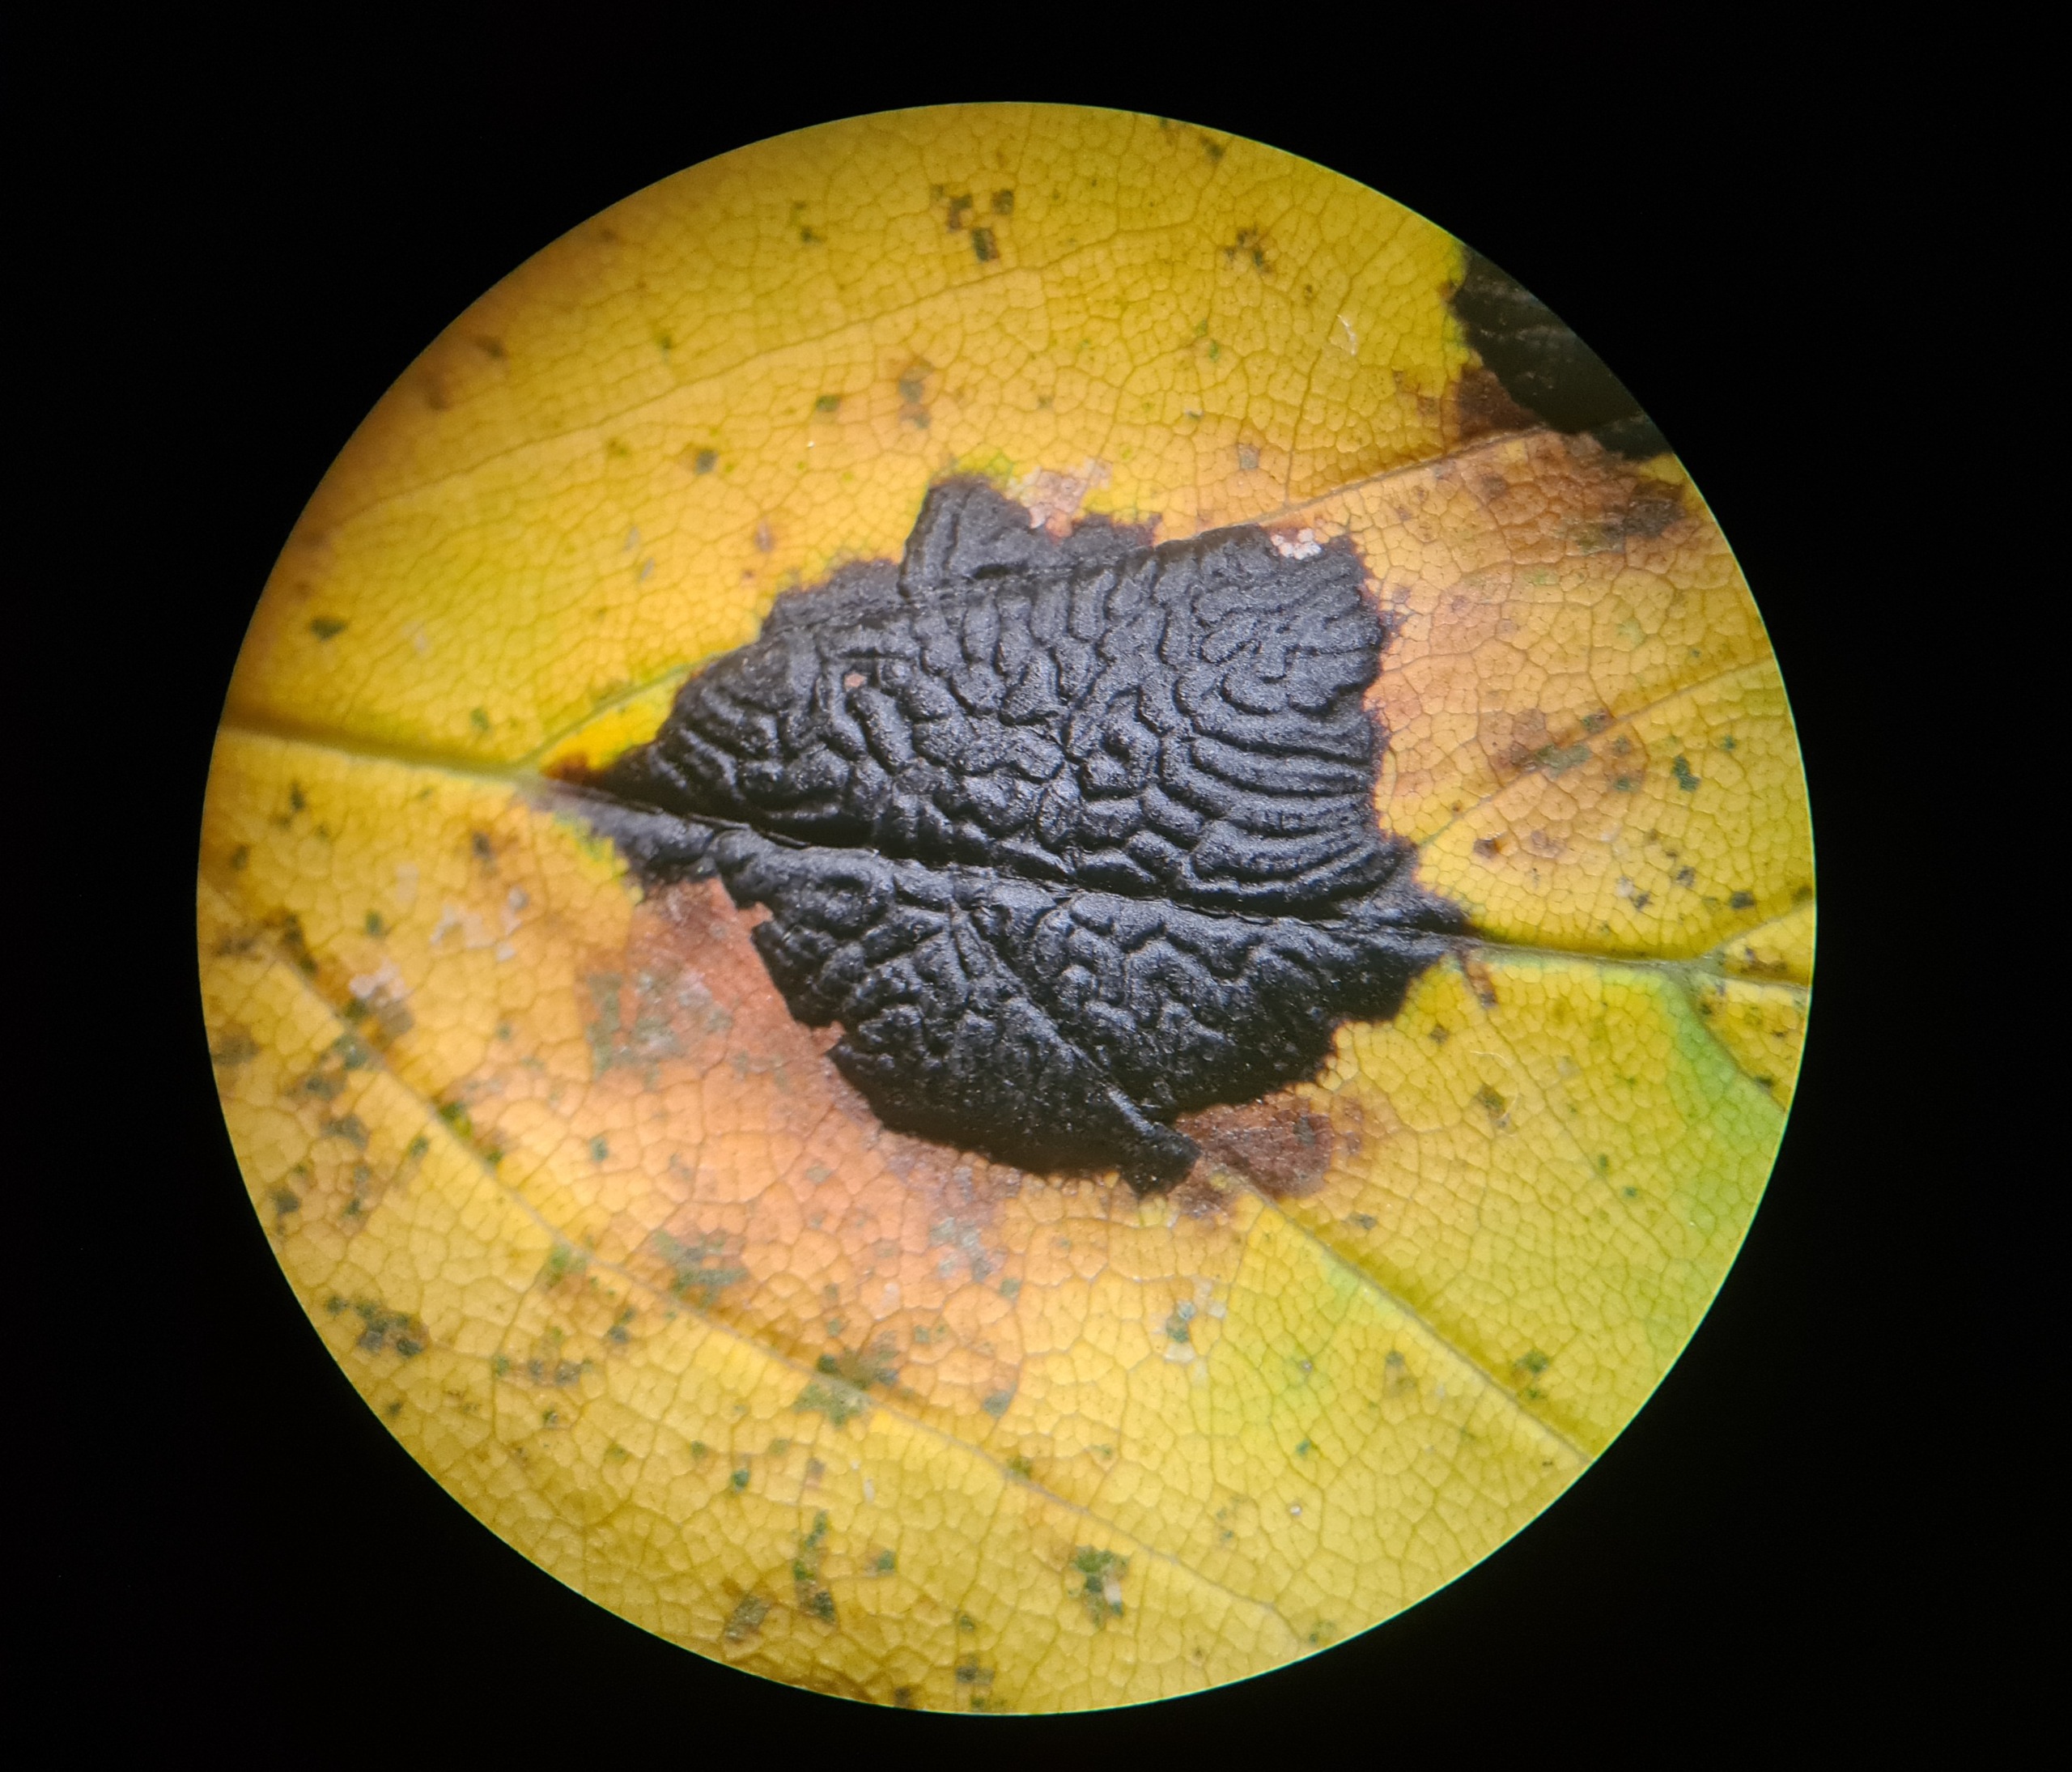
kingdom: Fungi
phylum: Ascomycota
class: Leotiomycetes
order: Rhytismatales
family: Rhytismataceae
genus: Rhytisma
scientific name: Rhytisma acerinum
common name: Ahorn-rynkeplet
